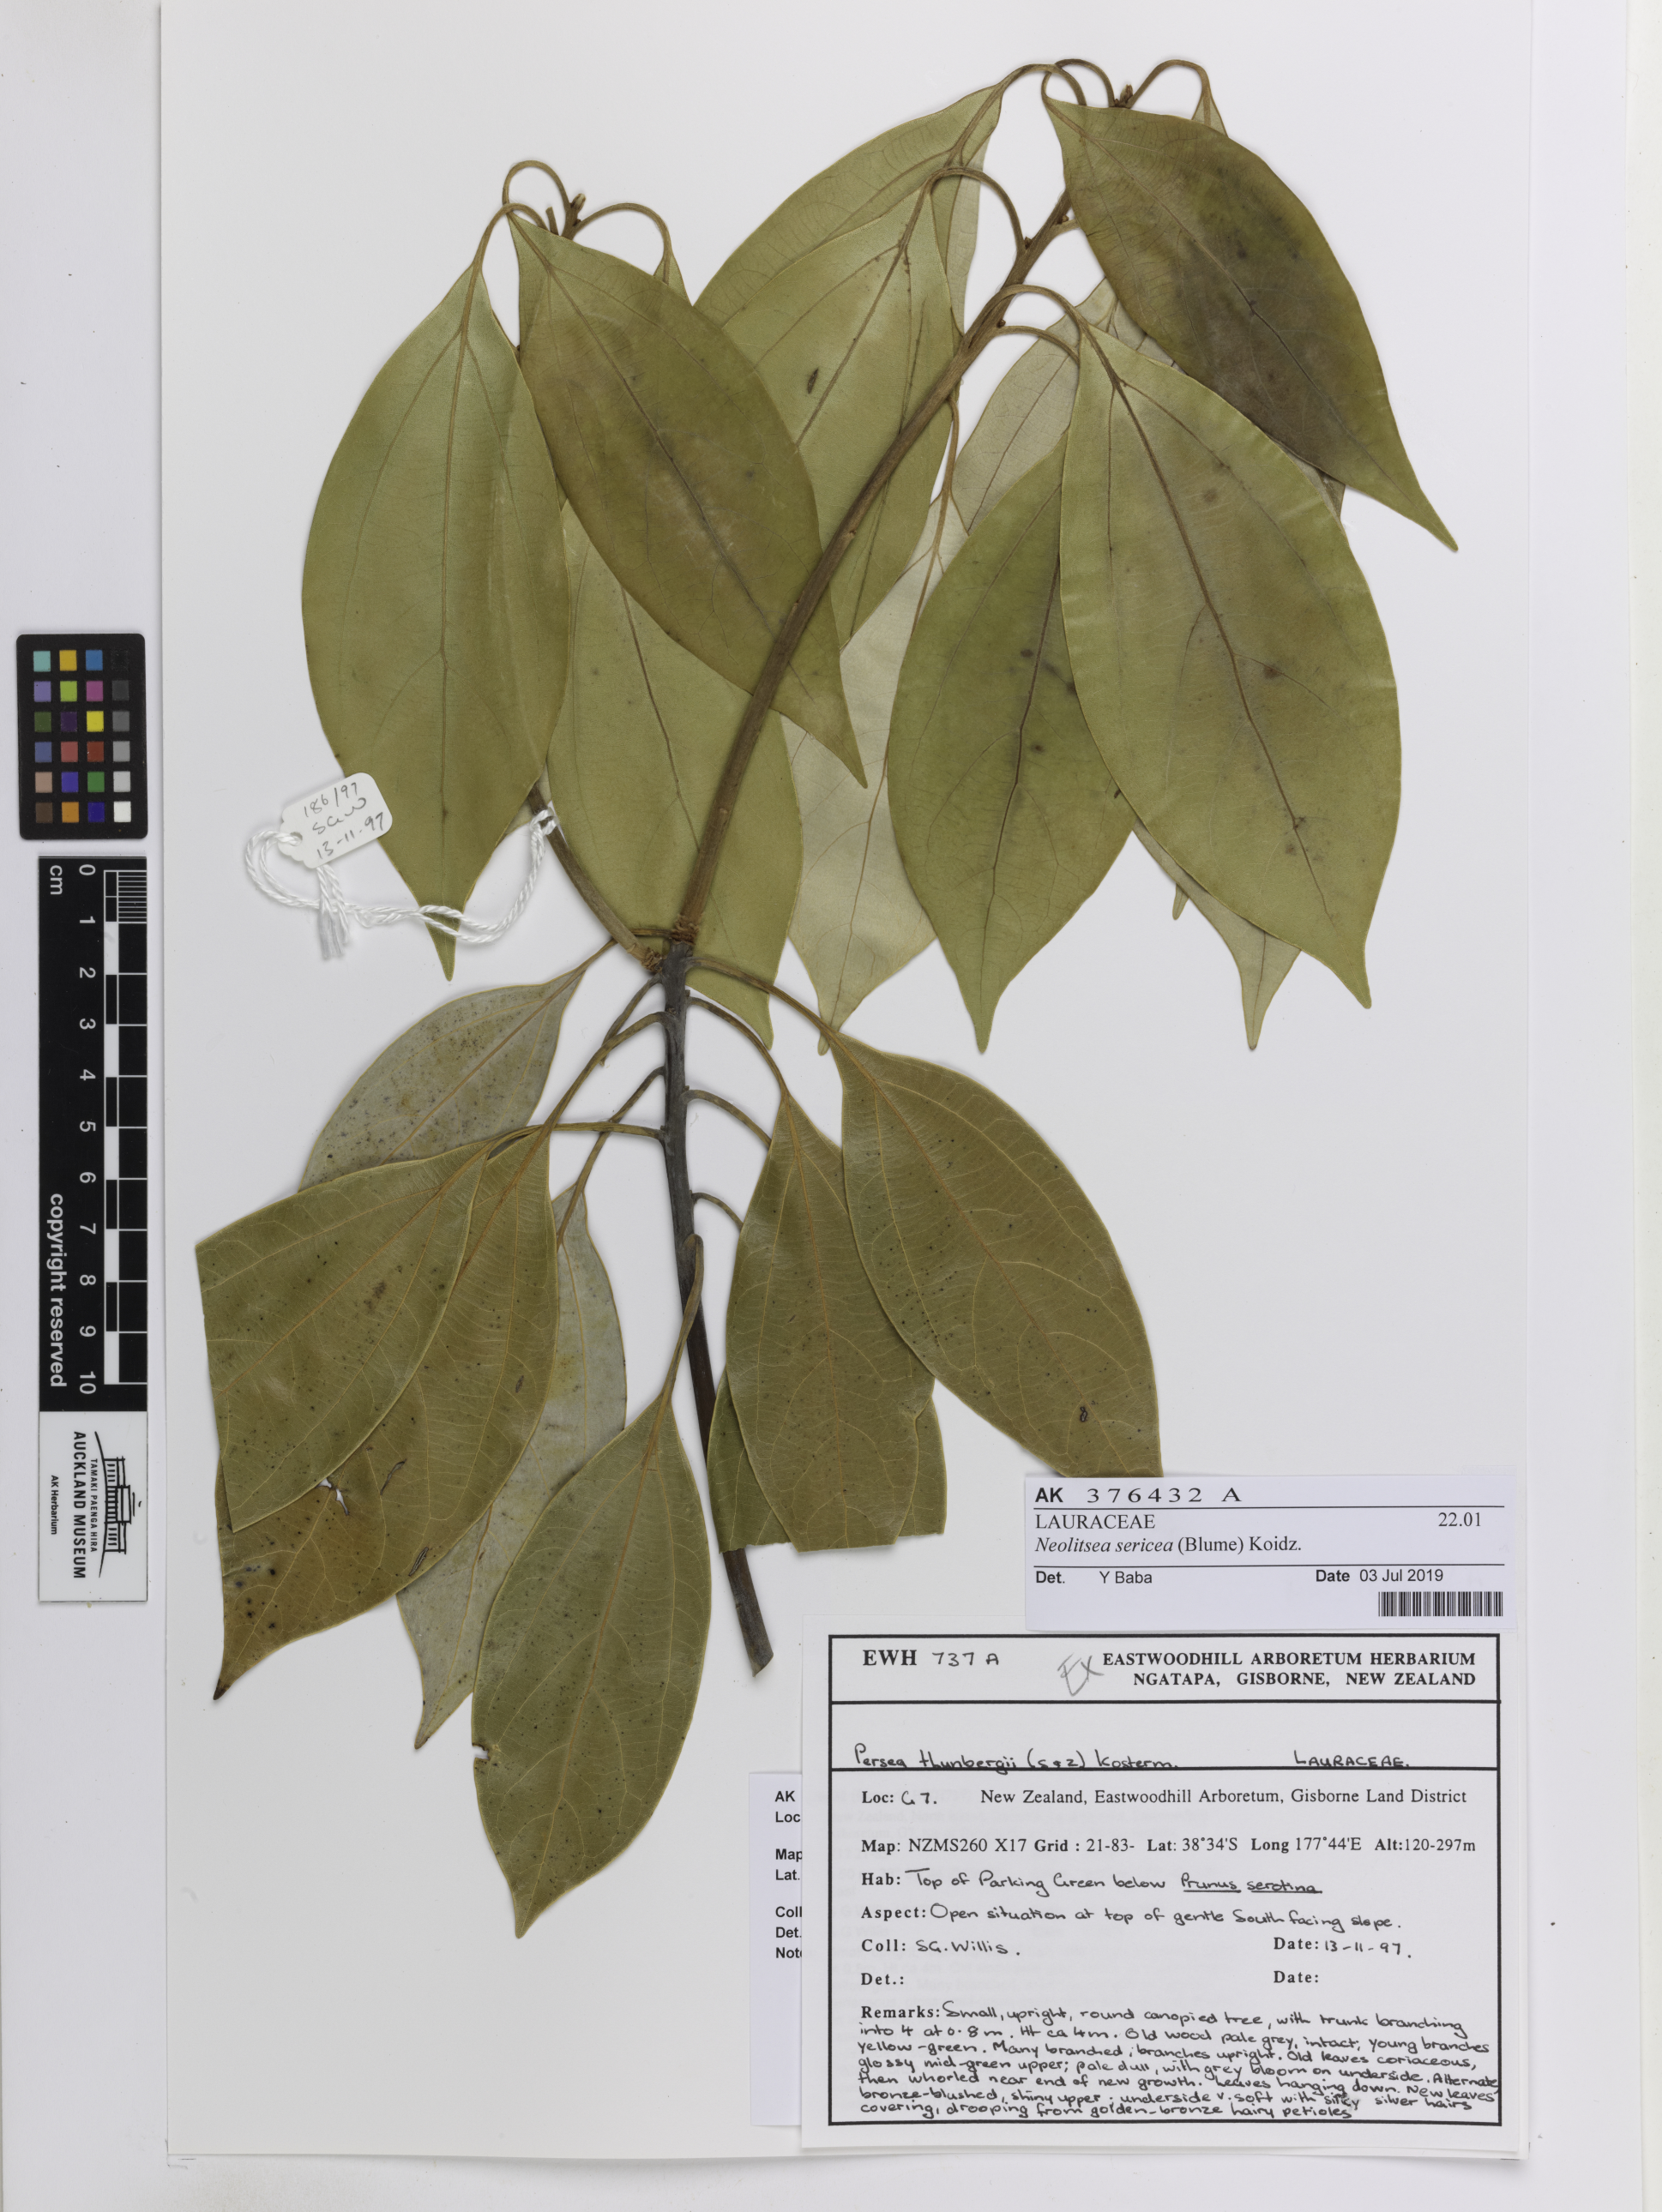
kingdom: Plantae
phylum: Tracheophyta
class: Magnoliopsida
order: Laurales
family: Lauraceae
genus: Neolitsea
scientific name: Neolitsea sericea
